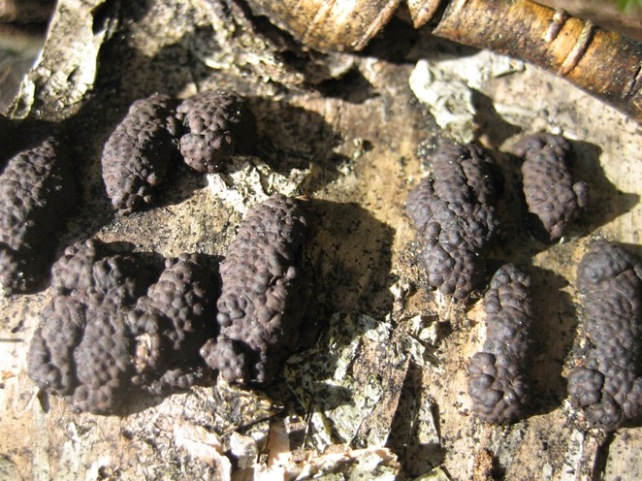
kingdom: Fungi
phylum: Ascomycota
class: Sordariomycetes
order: Xylariales
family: Hypoxylaceae
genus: Jackrogersella
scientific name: Jackrogersella multiformis
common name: foranderlig kulbær
